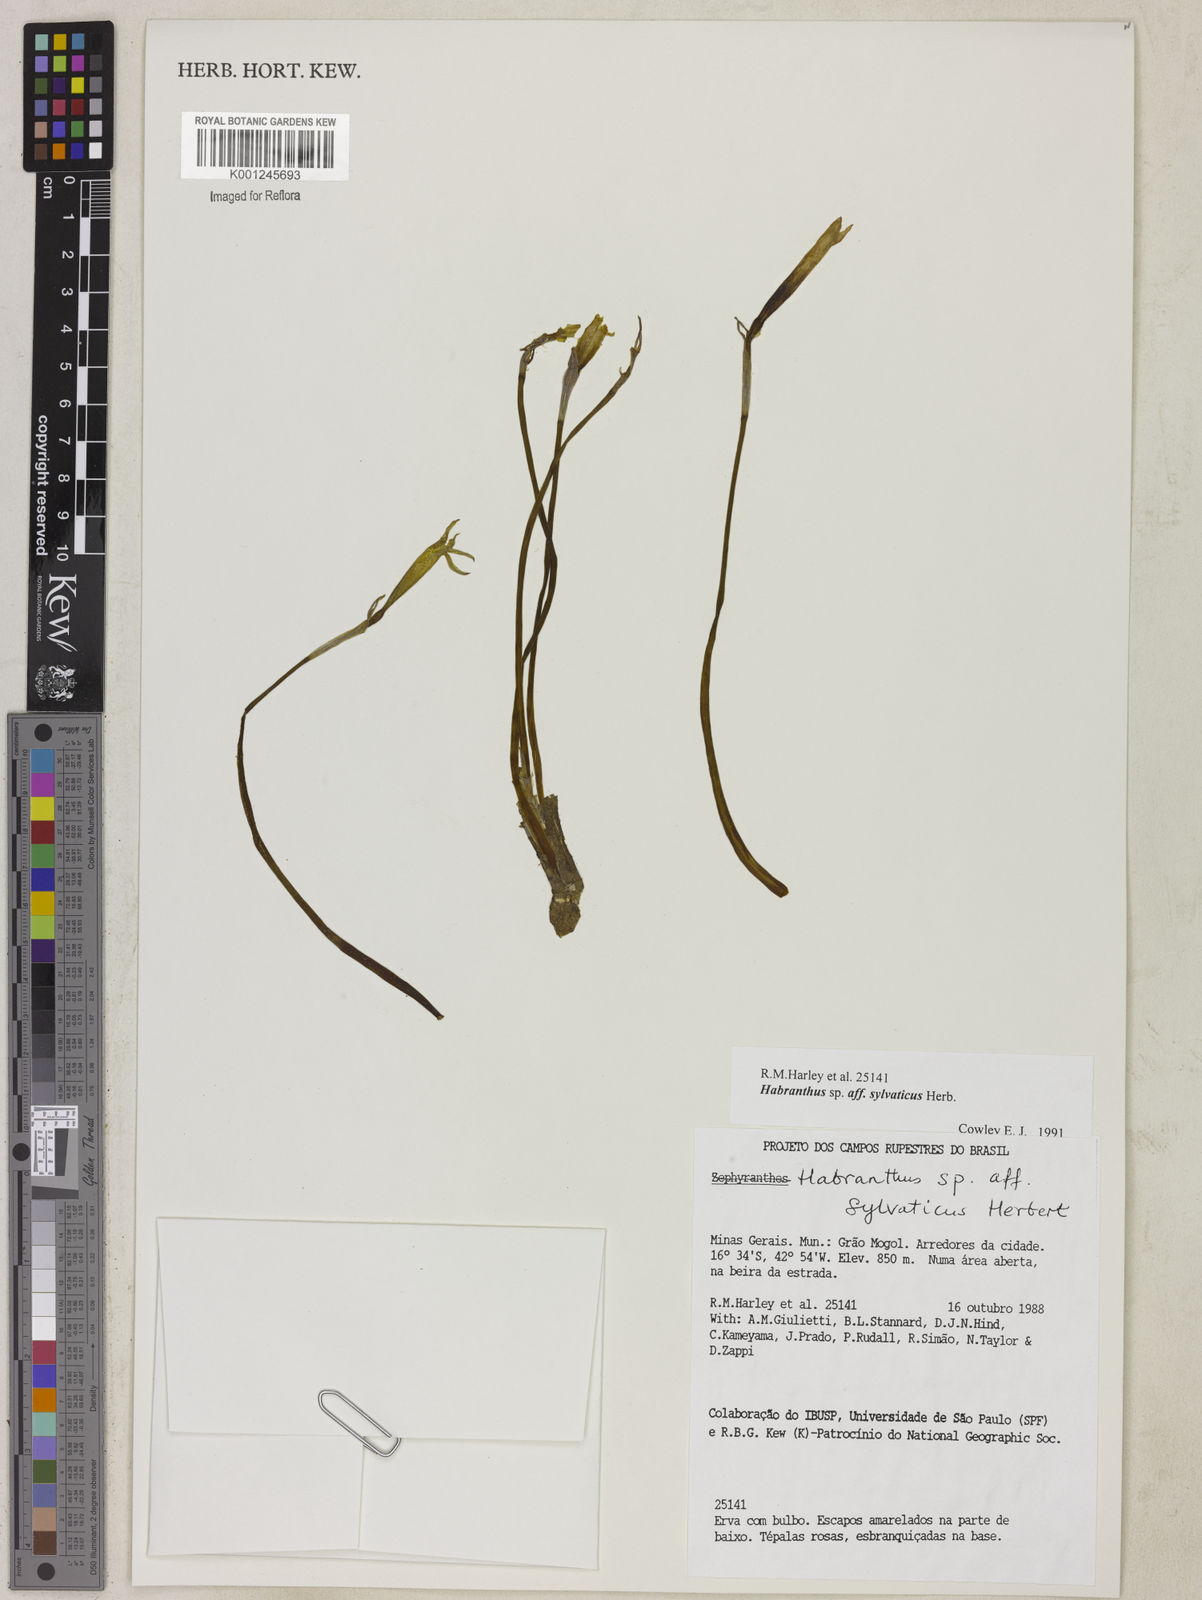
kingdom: Plantae
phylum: Tracheophyta
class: Liliopsida
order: Asparagales
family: Amaryllidaceae
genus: Zephyranthes
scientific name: Zephyranthes sylvatica
